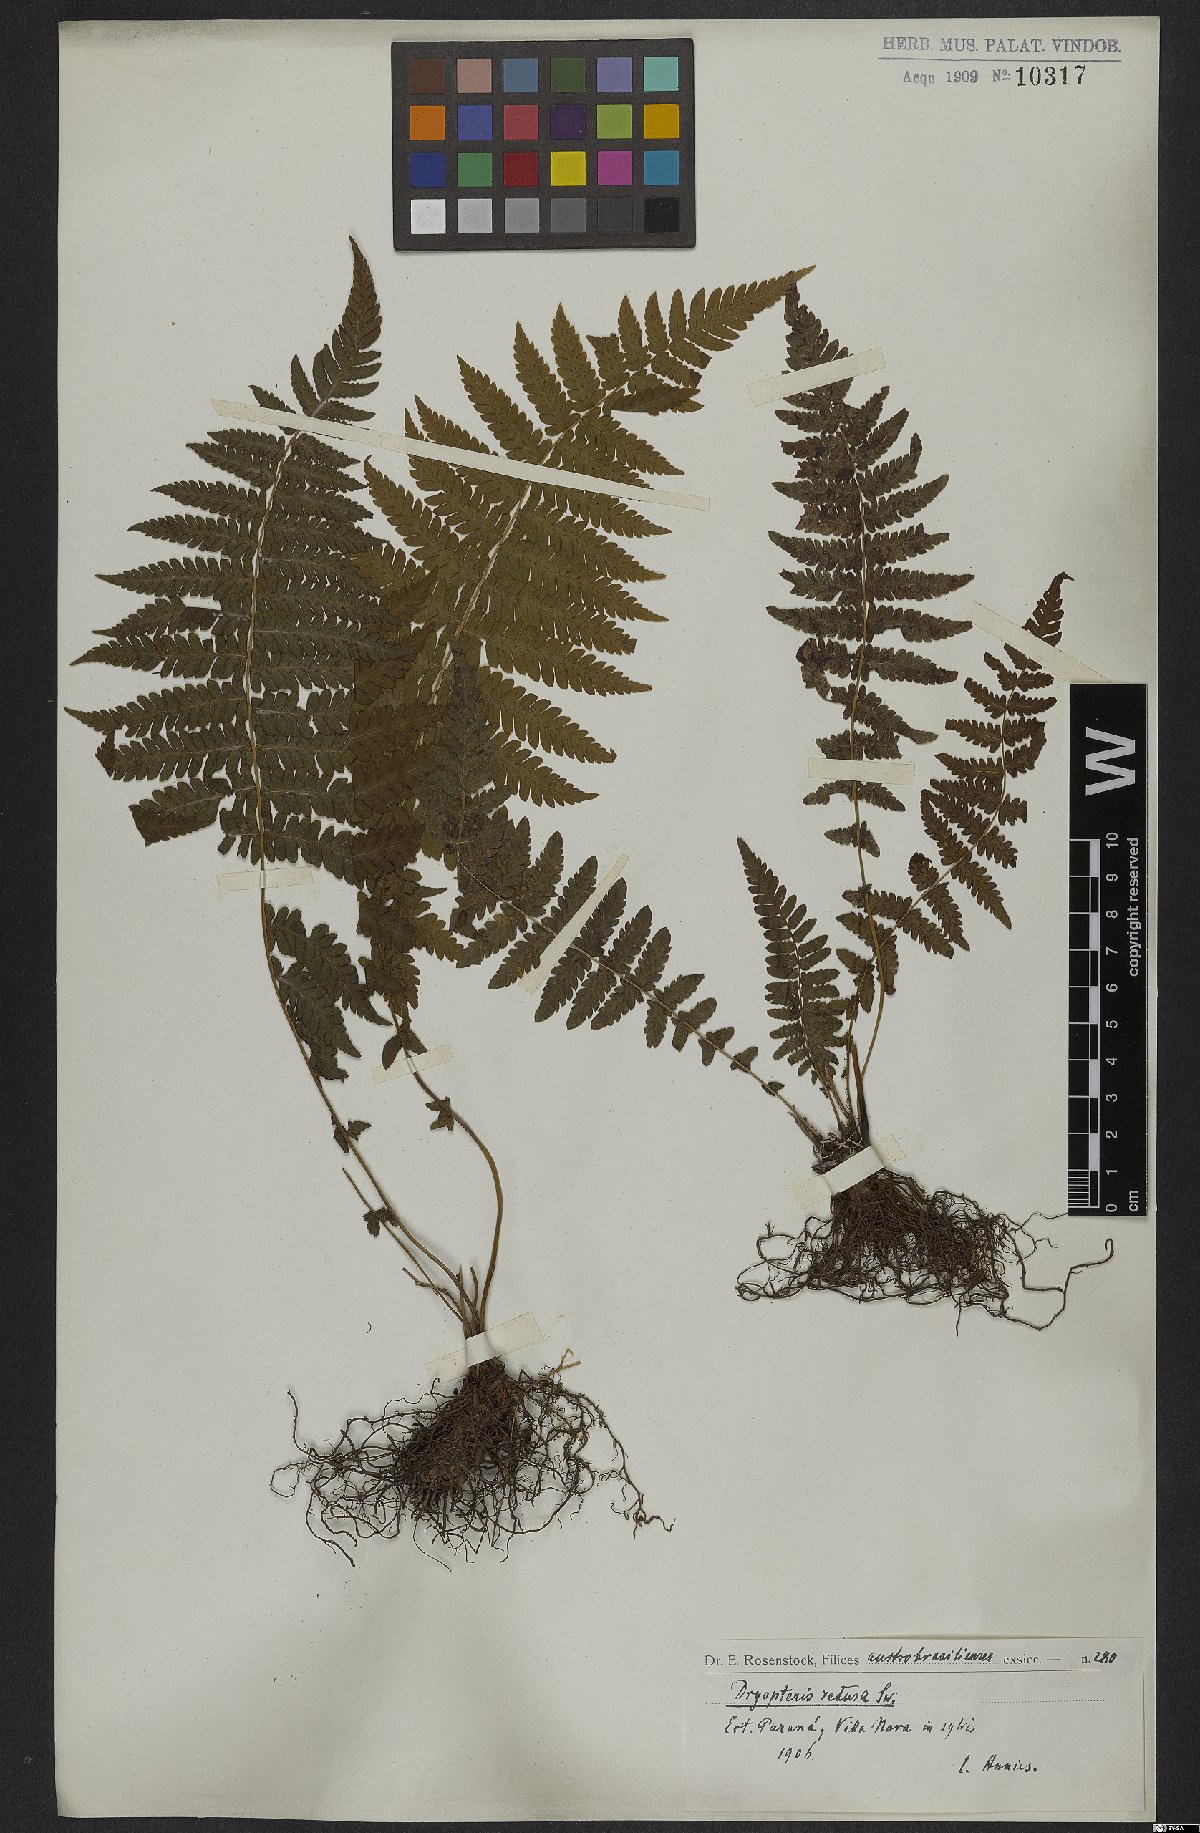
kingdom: Plantae
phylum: Tracheophyta
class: Polypodiopsida
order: Polypodiales
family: Thelypteridaceae
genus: Amauropelta
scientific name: Amauropelta retusa
